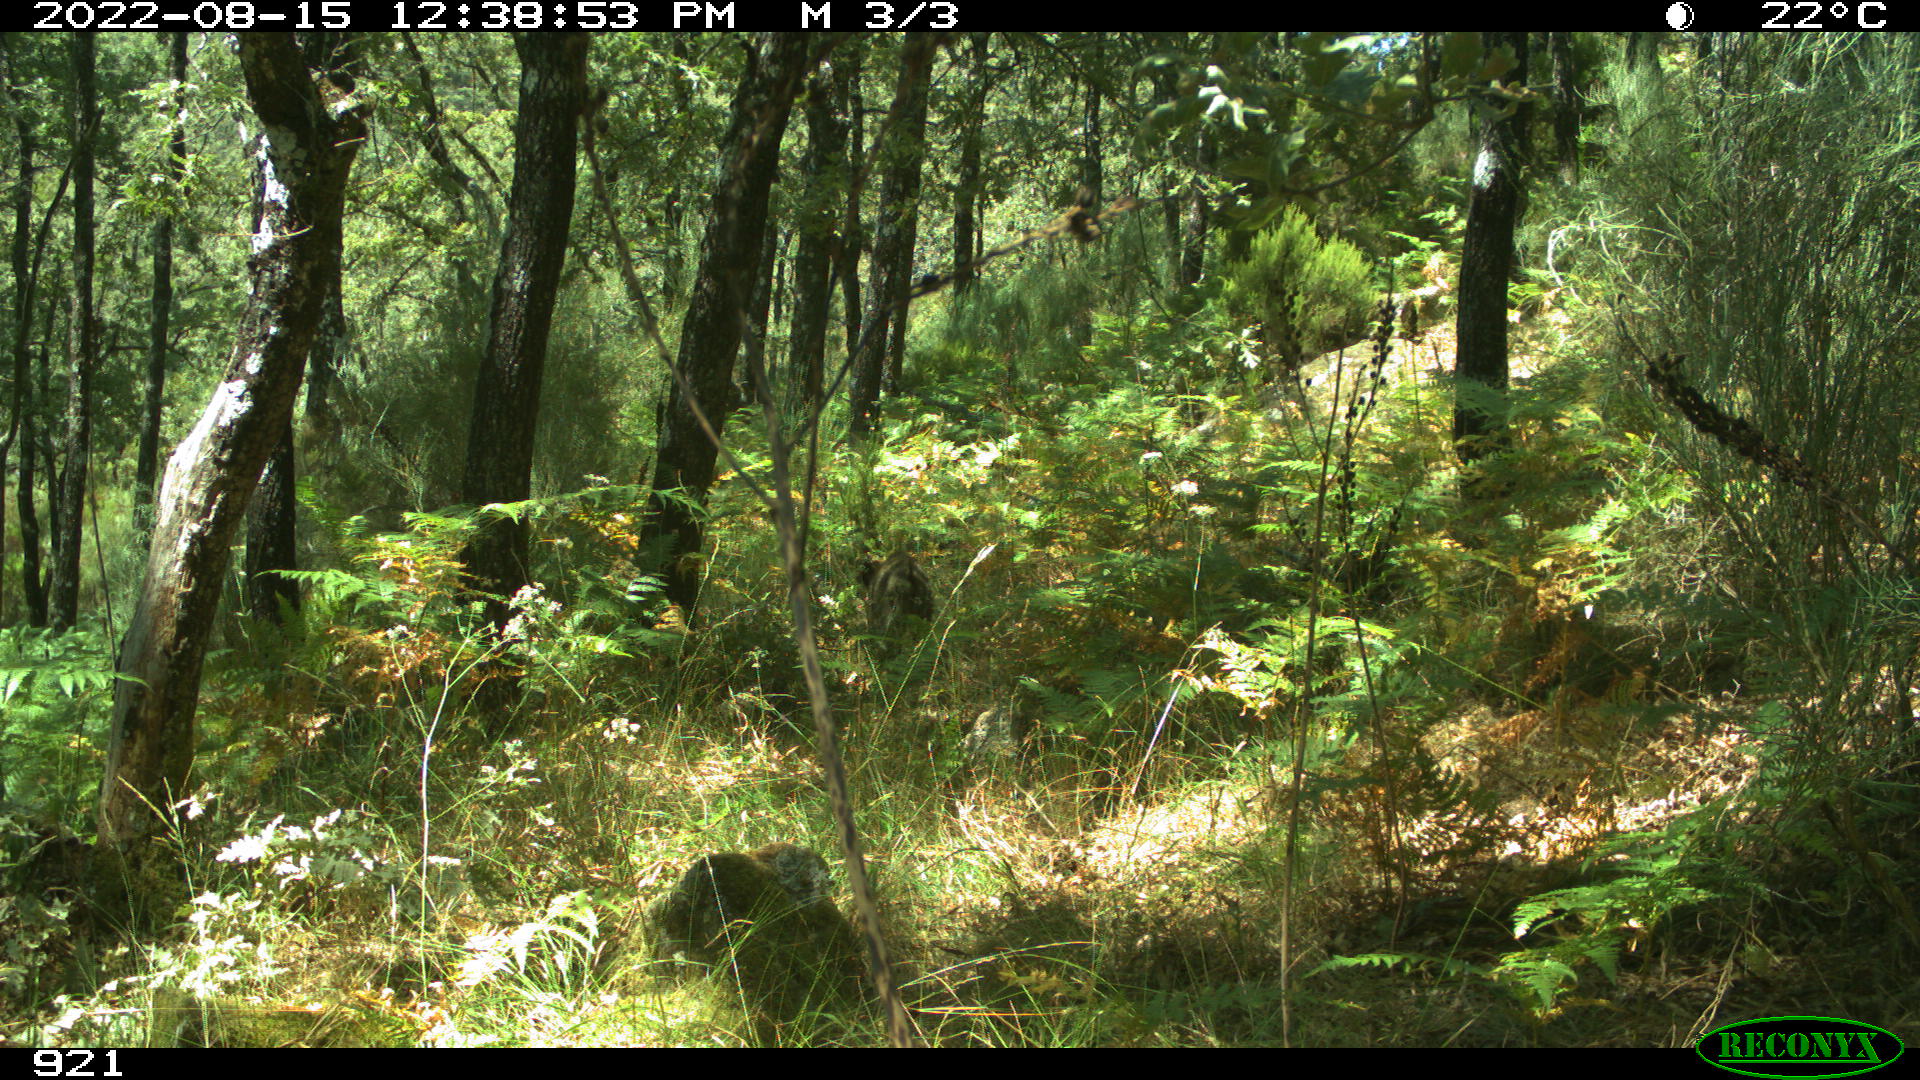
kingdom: Animalia
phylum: Chordata
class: Mammalia
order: Artiodactyla
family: Suidae
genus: Sus
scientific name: Sus scrofa
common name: Wild boar
